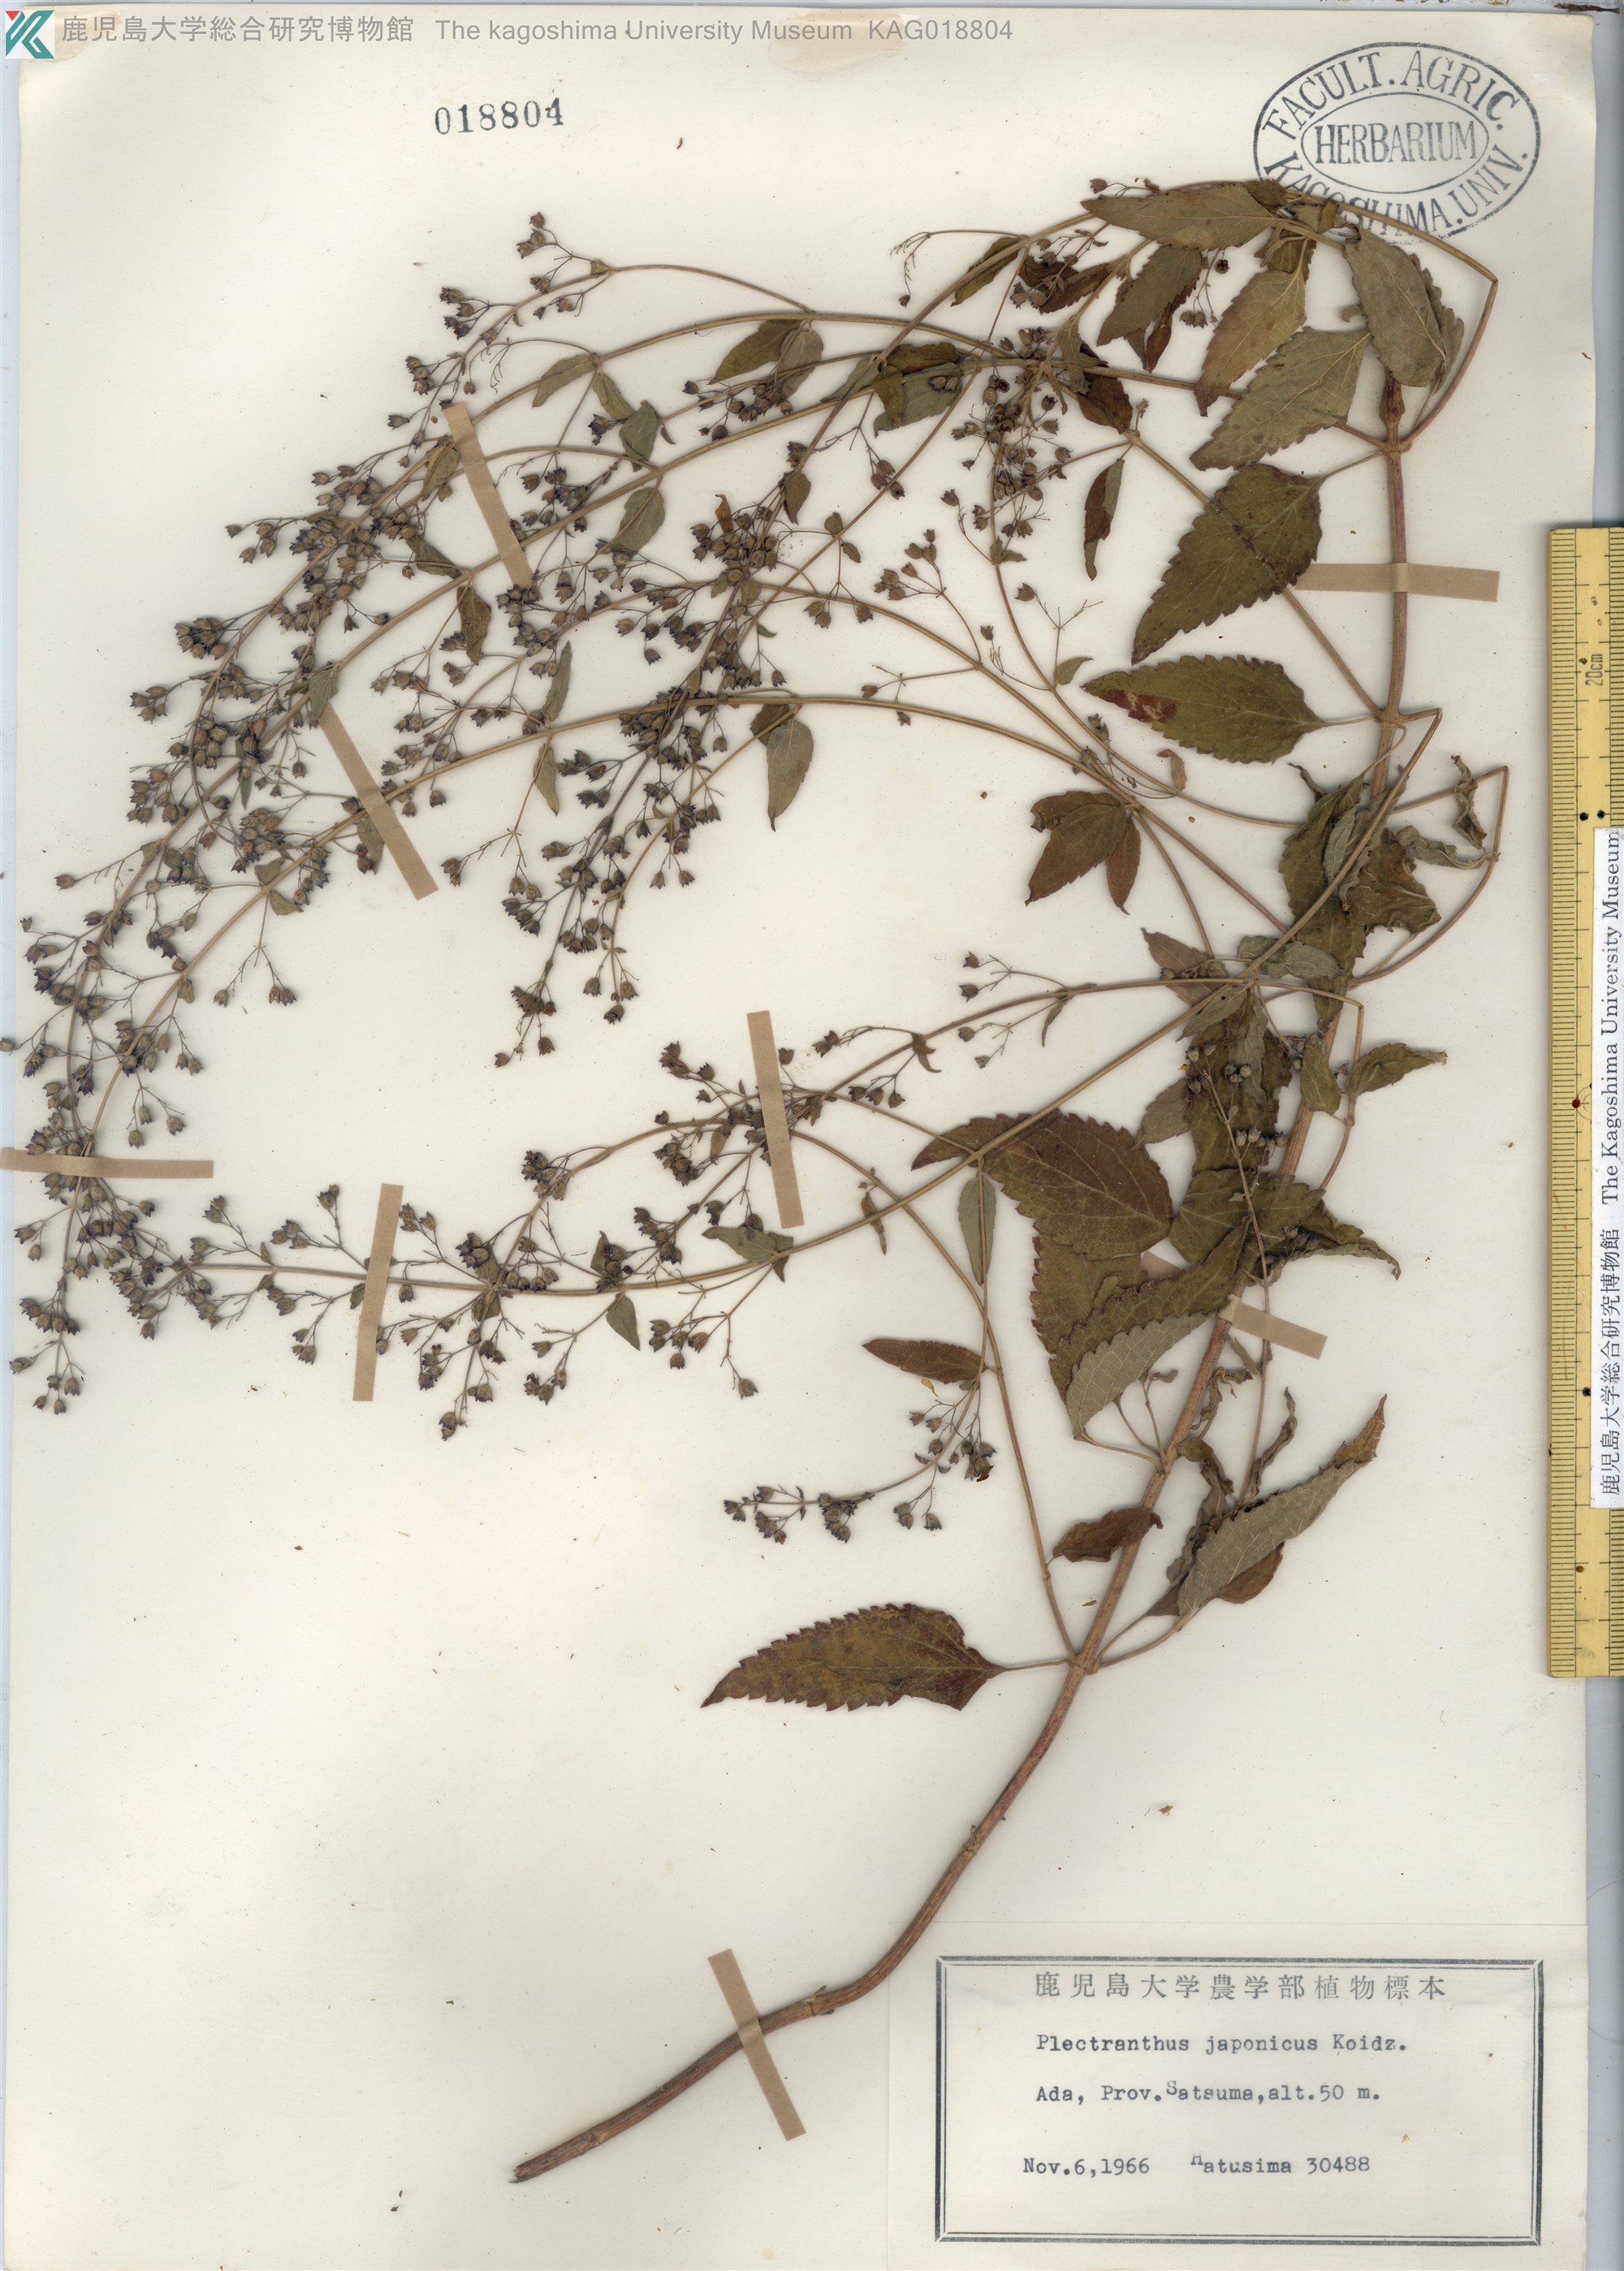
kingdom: Plantae
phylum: Tracheophyta
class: Magnoliopsida
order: Lamiales
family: Lamiaceae
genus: Isodon
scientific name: Isodon japonicus
